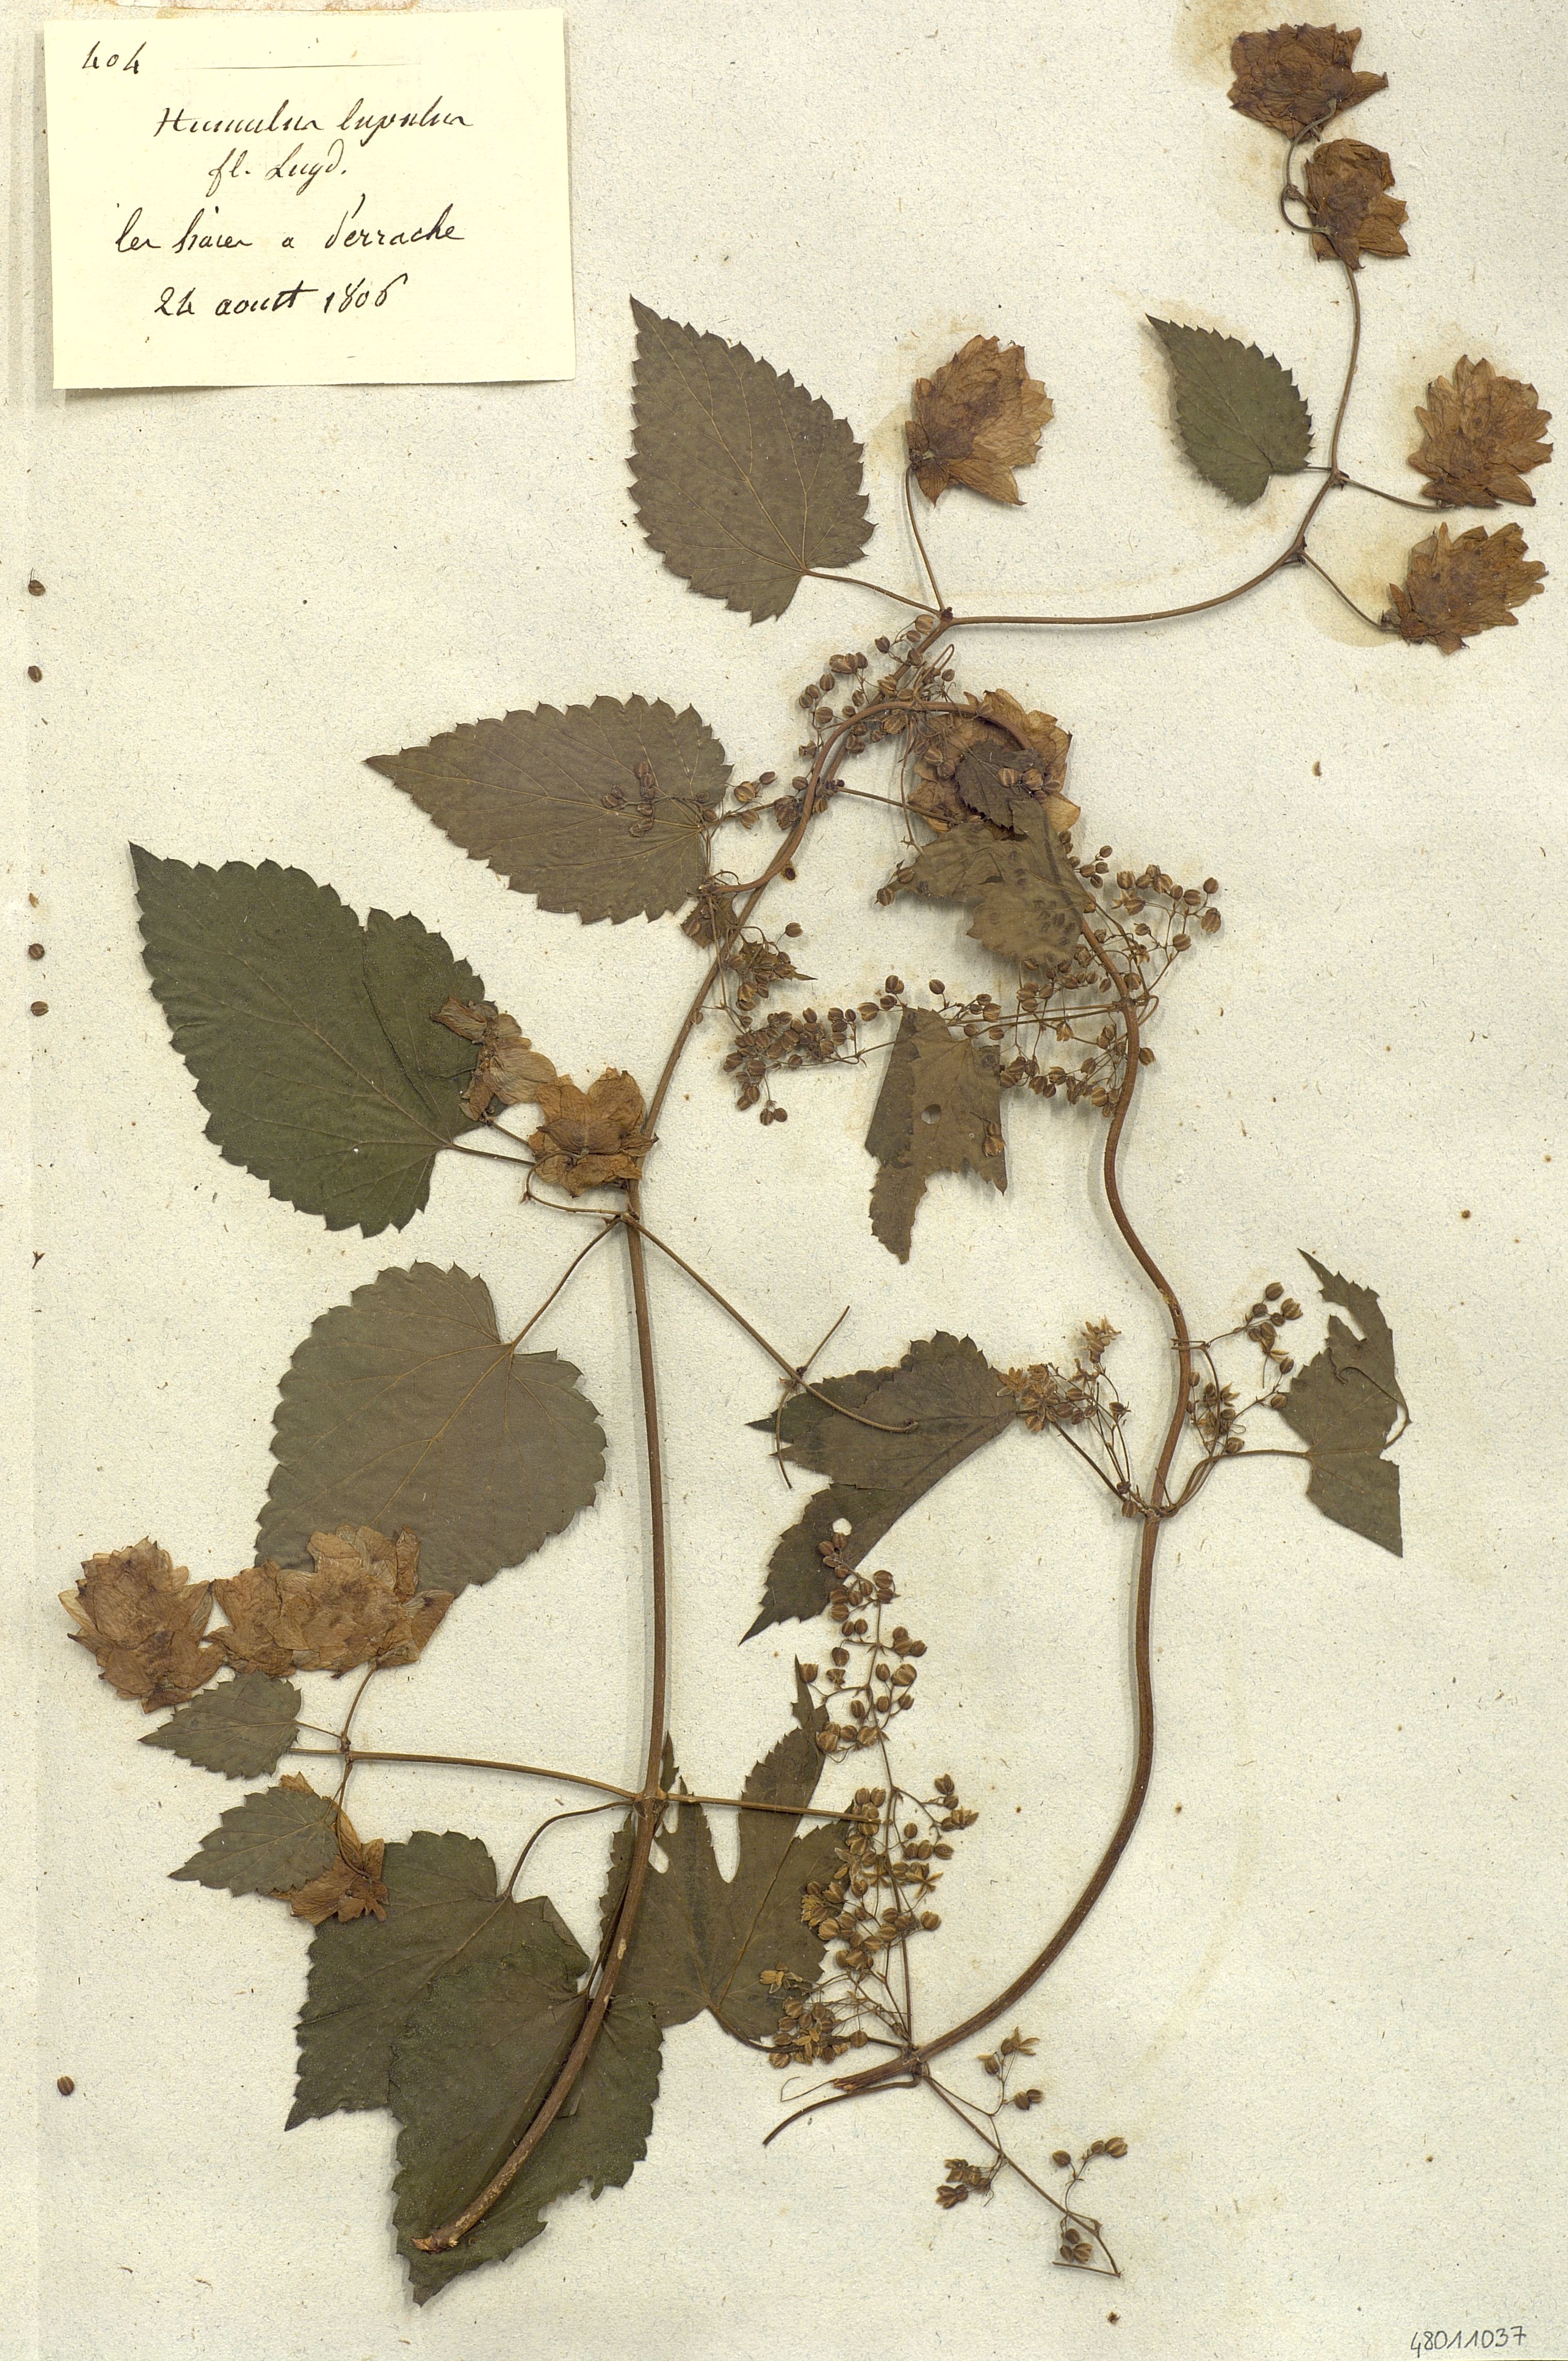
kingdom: Plantae
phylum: Tracheophyta
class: Magnoliopsida
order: Rosales
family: Cannabaceae
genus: Humulus
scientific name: Humulus lupulus
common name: Hop
